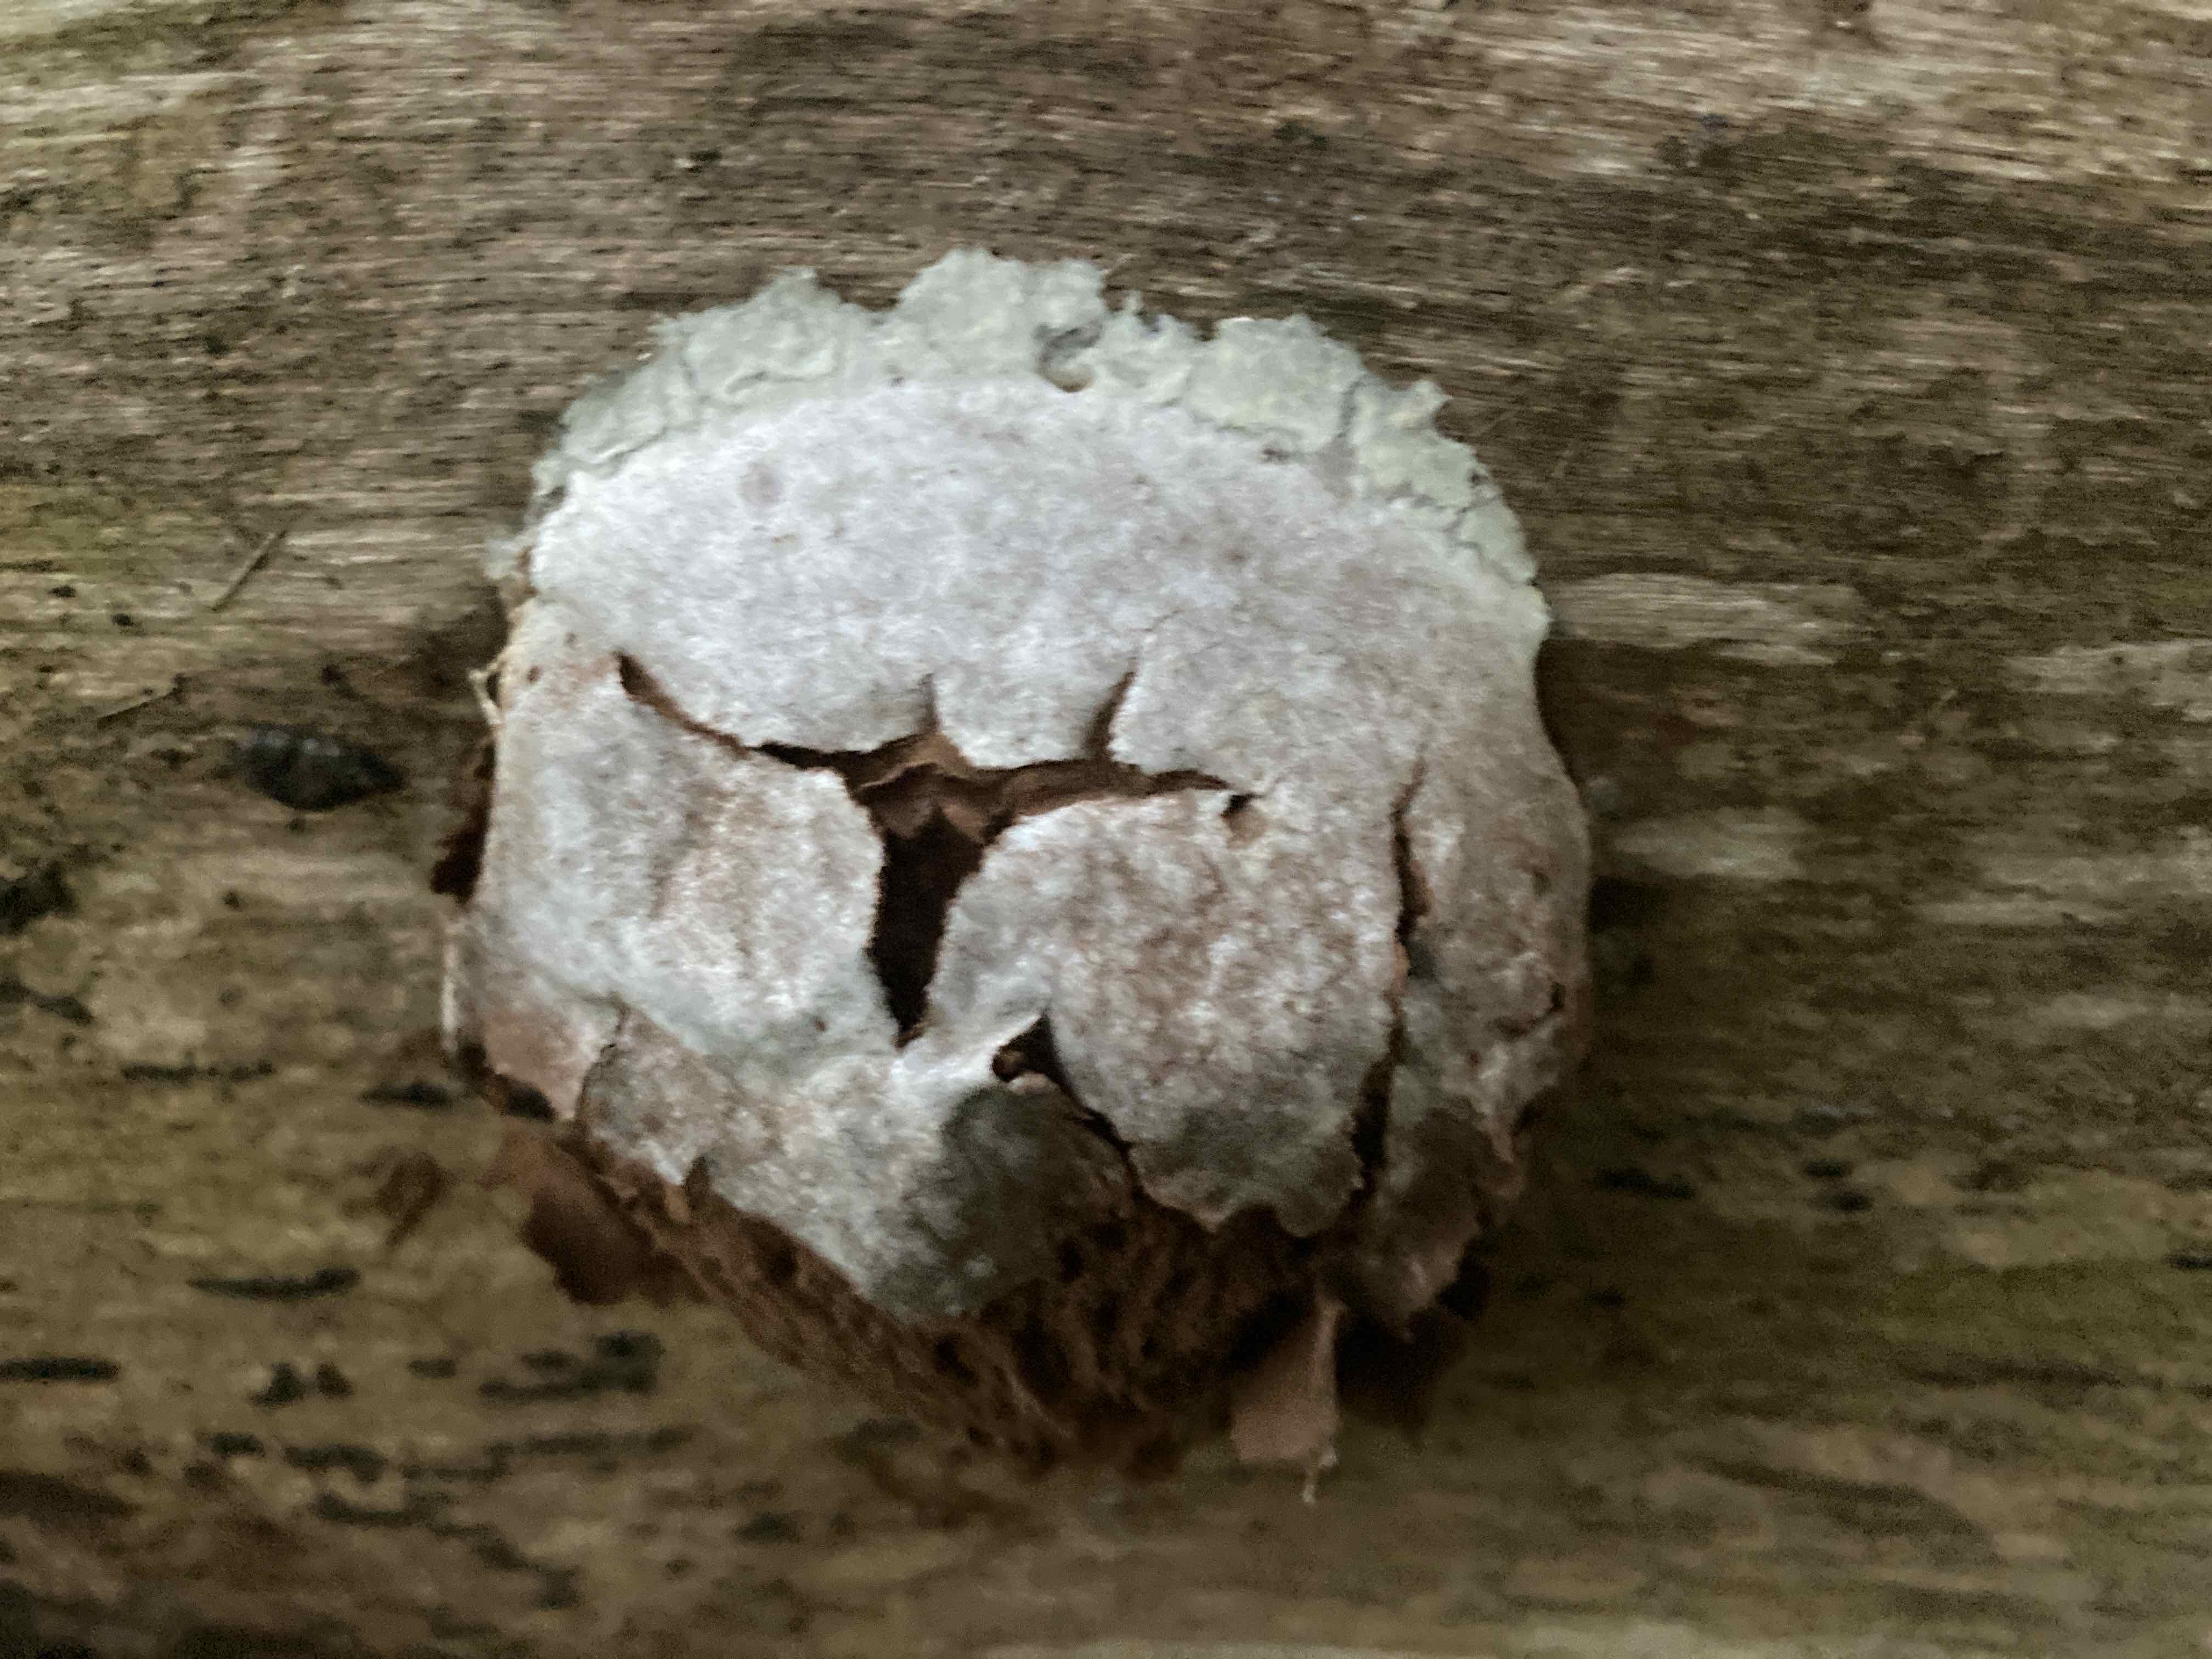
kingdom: Protozoa
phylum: Mycetozoa
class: Myxomycetes
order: Cribrariales
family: Tubiferaceae
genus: Reticularia
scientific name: Reticularia lycoperdon
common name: skinnende støvpude
